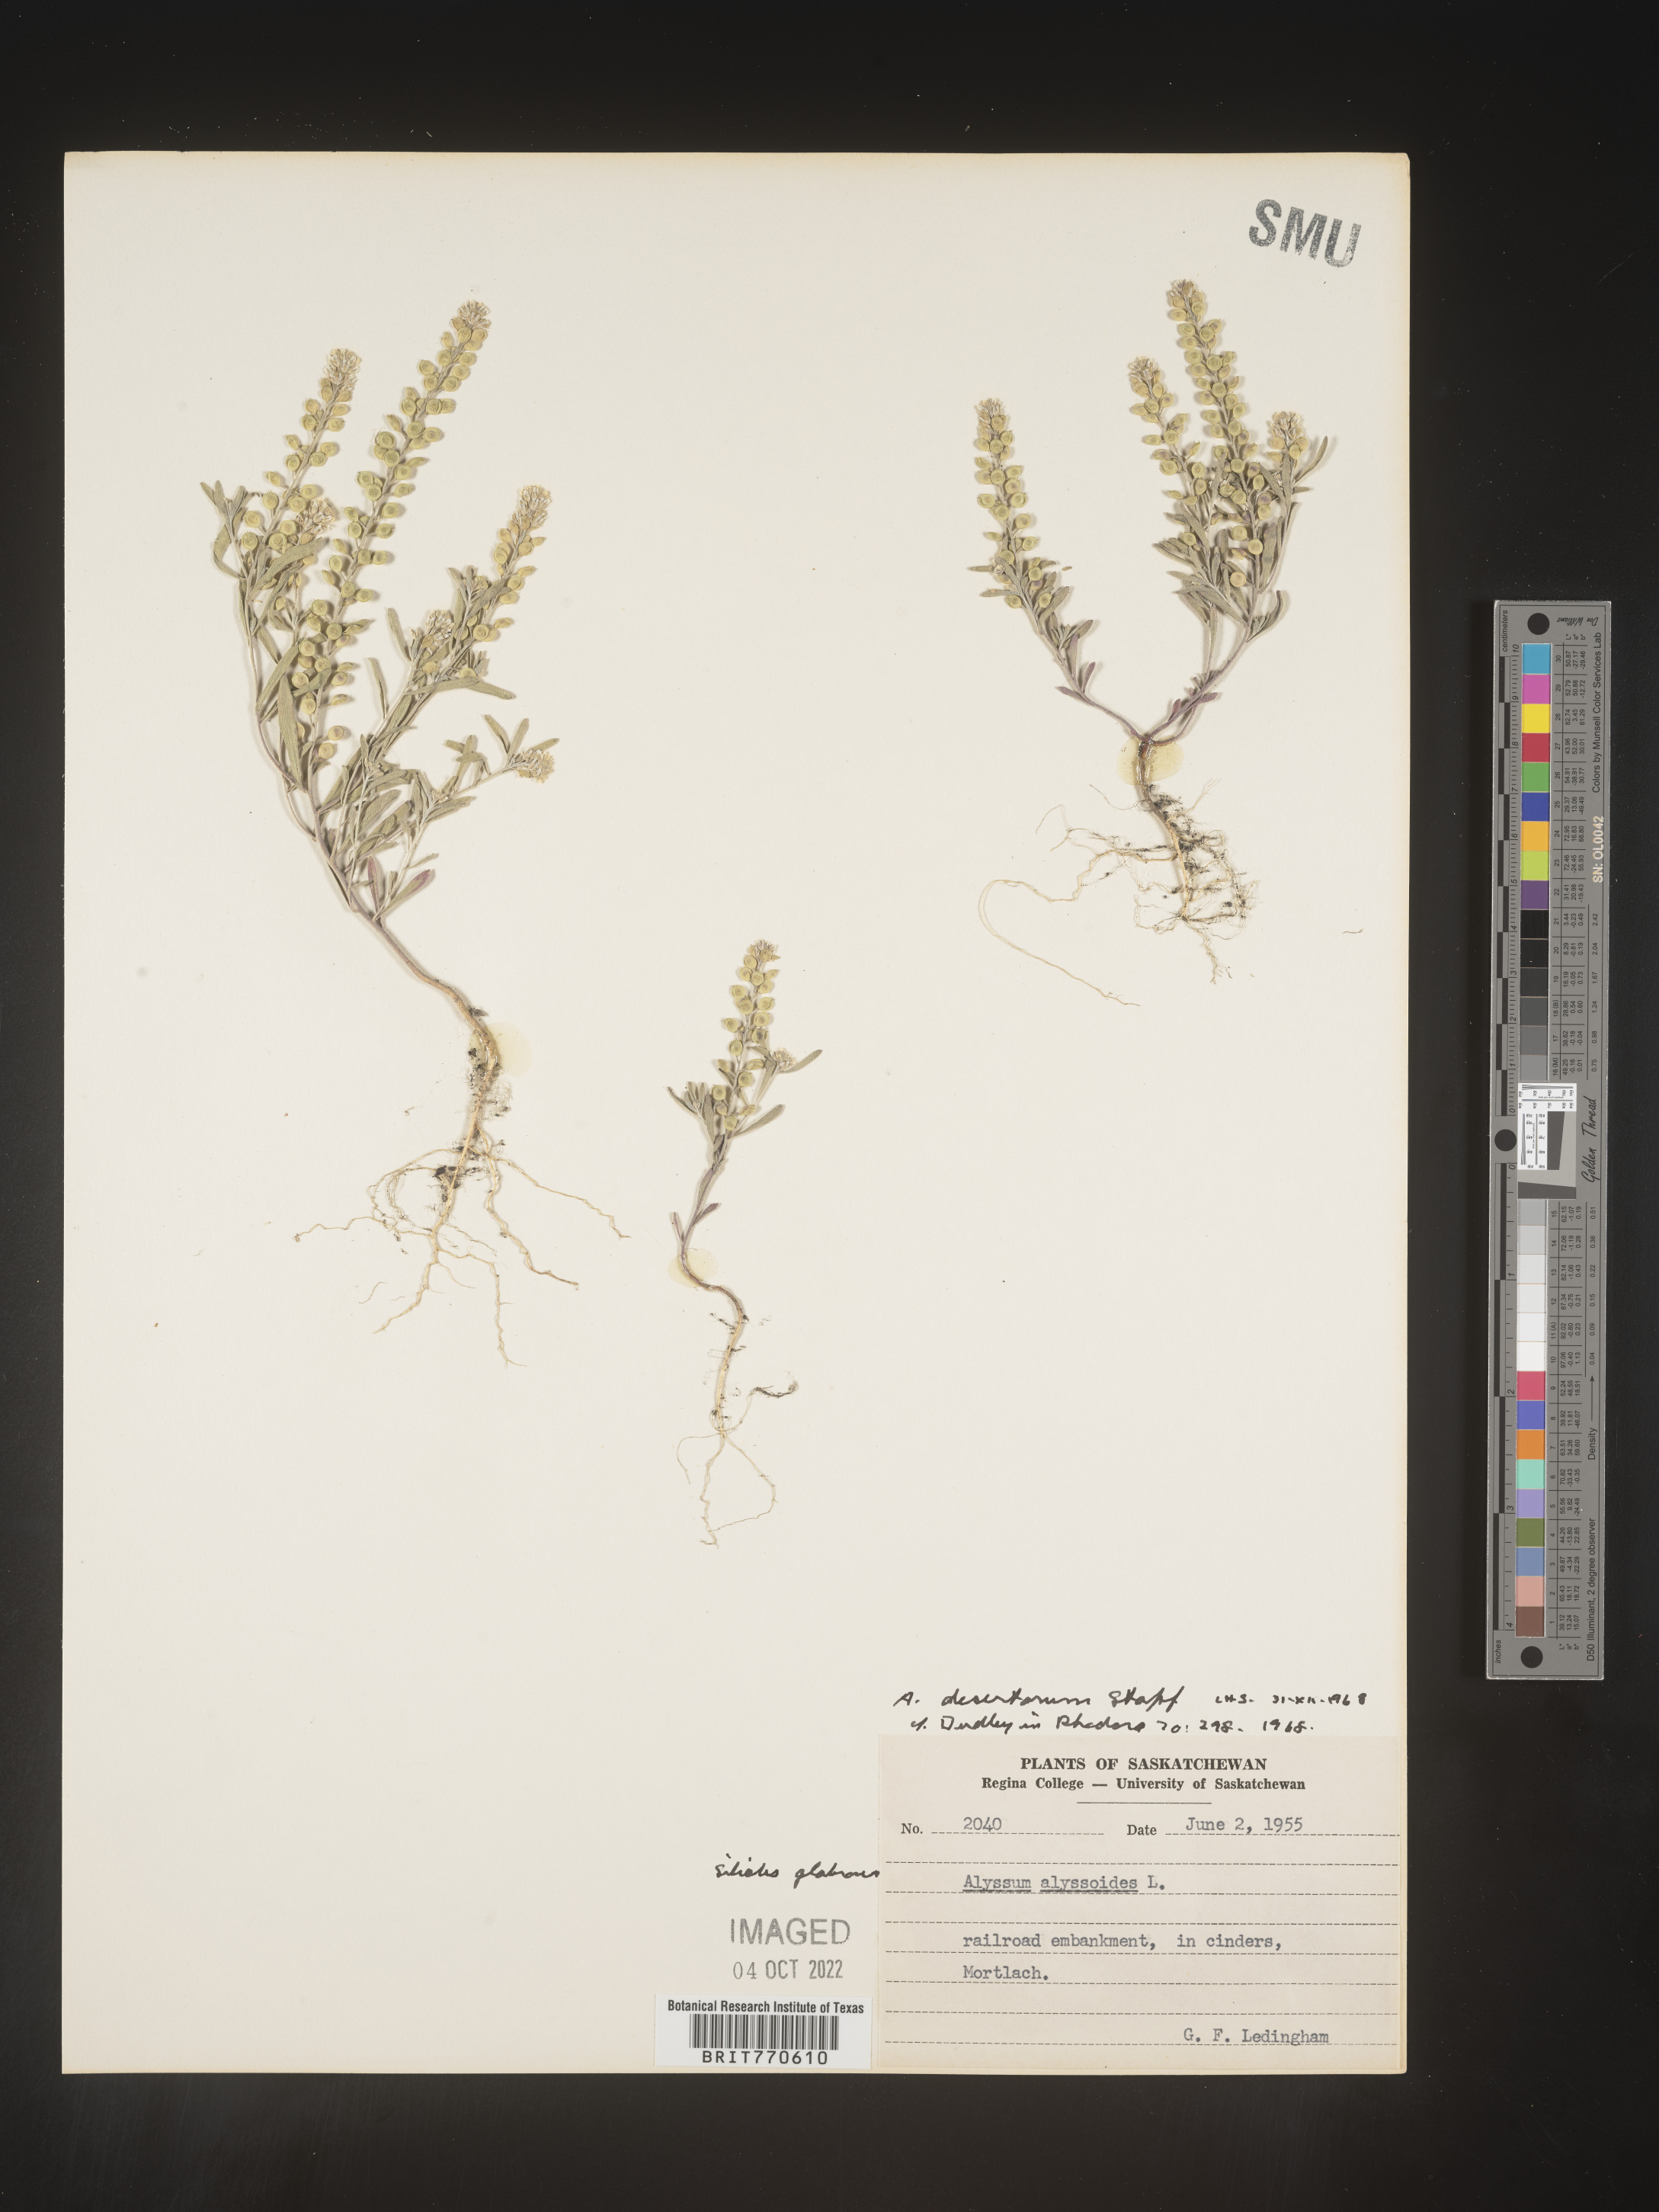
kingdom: Plantae
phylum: Tracheophyta
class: Magnoliopsida
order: Brassicales
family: Brassicaceae
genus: Alyssum
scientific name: Alyssum turkestanicum
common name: Desert alyssum
